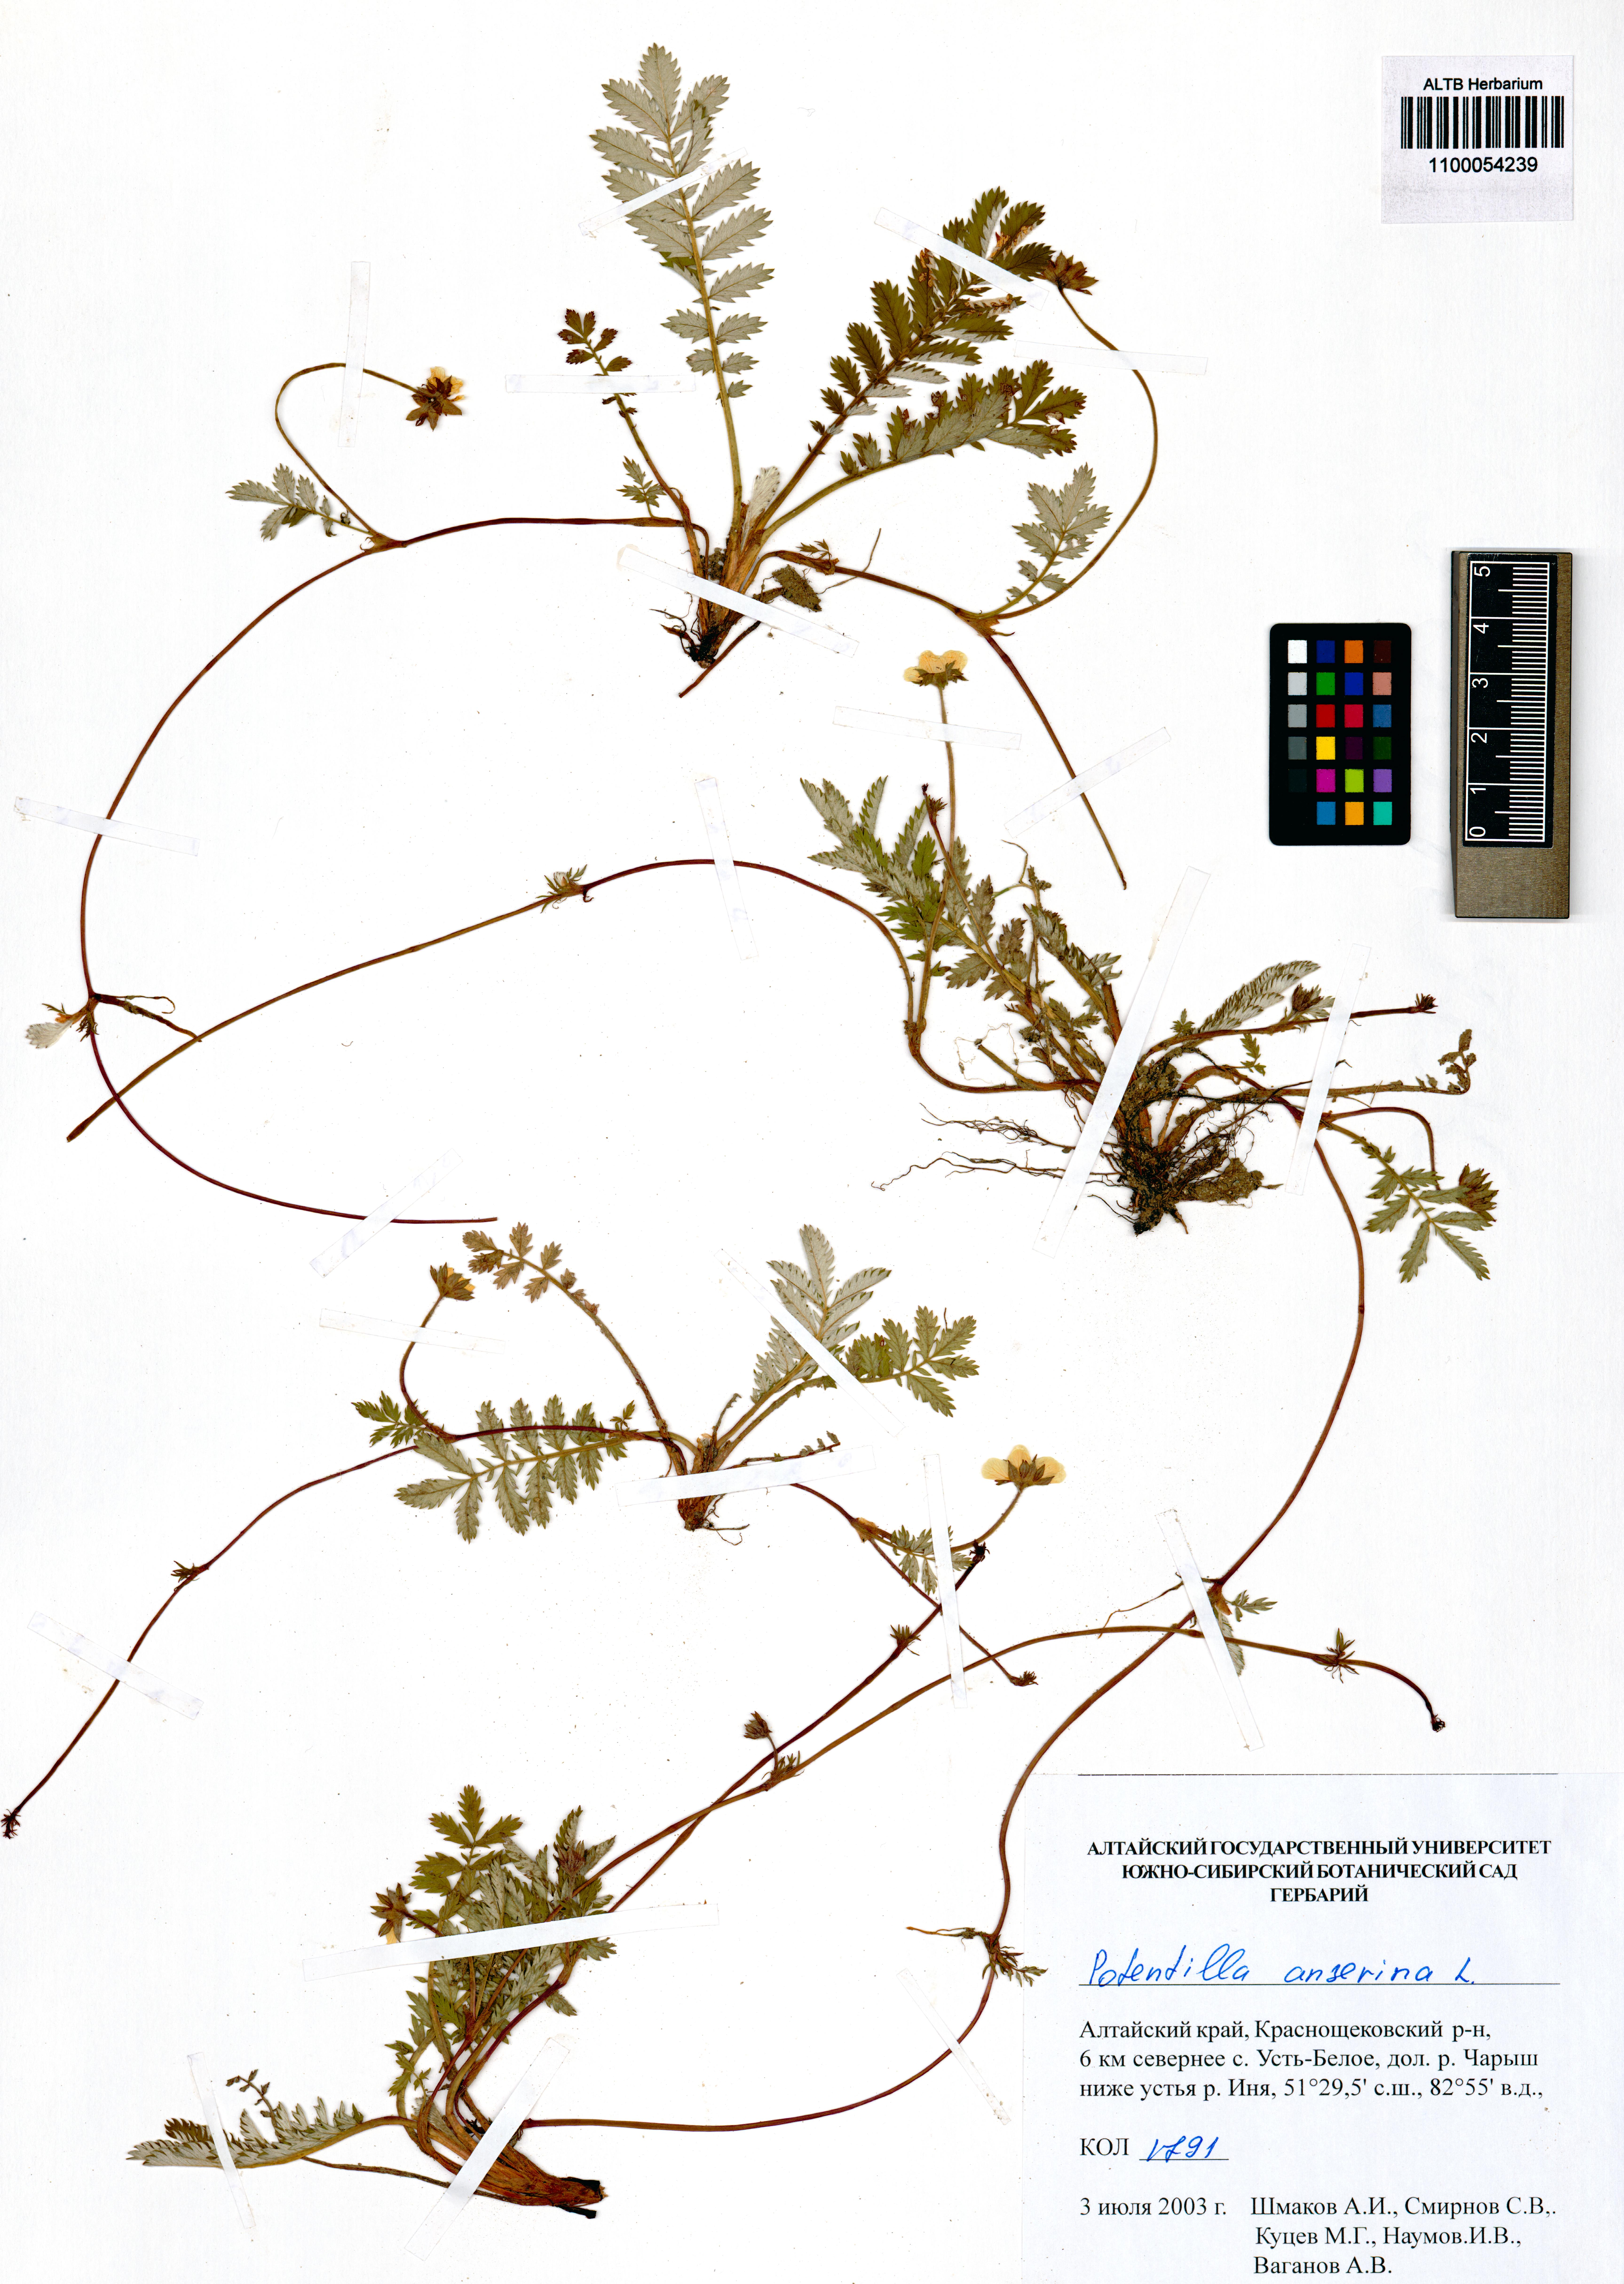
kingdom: Plantae
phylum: Tracheophyta
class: Magnoliopsida
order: Rosales
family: Rosaceae
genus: Argentina
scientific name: Argentina anserina
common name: Common silverweed
